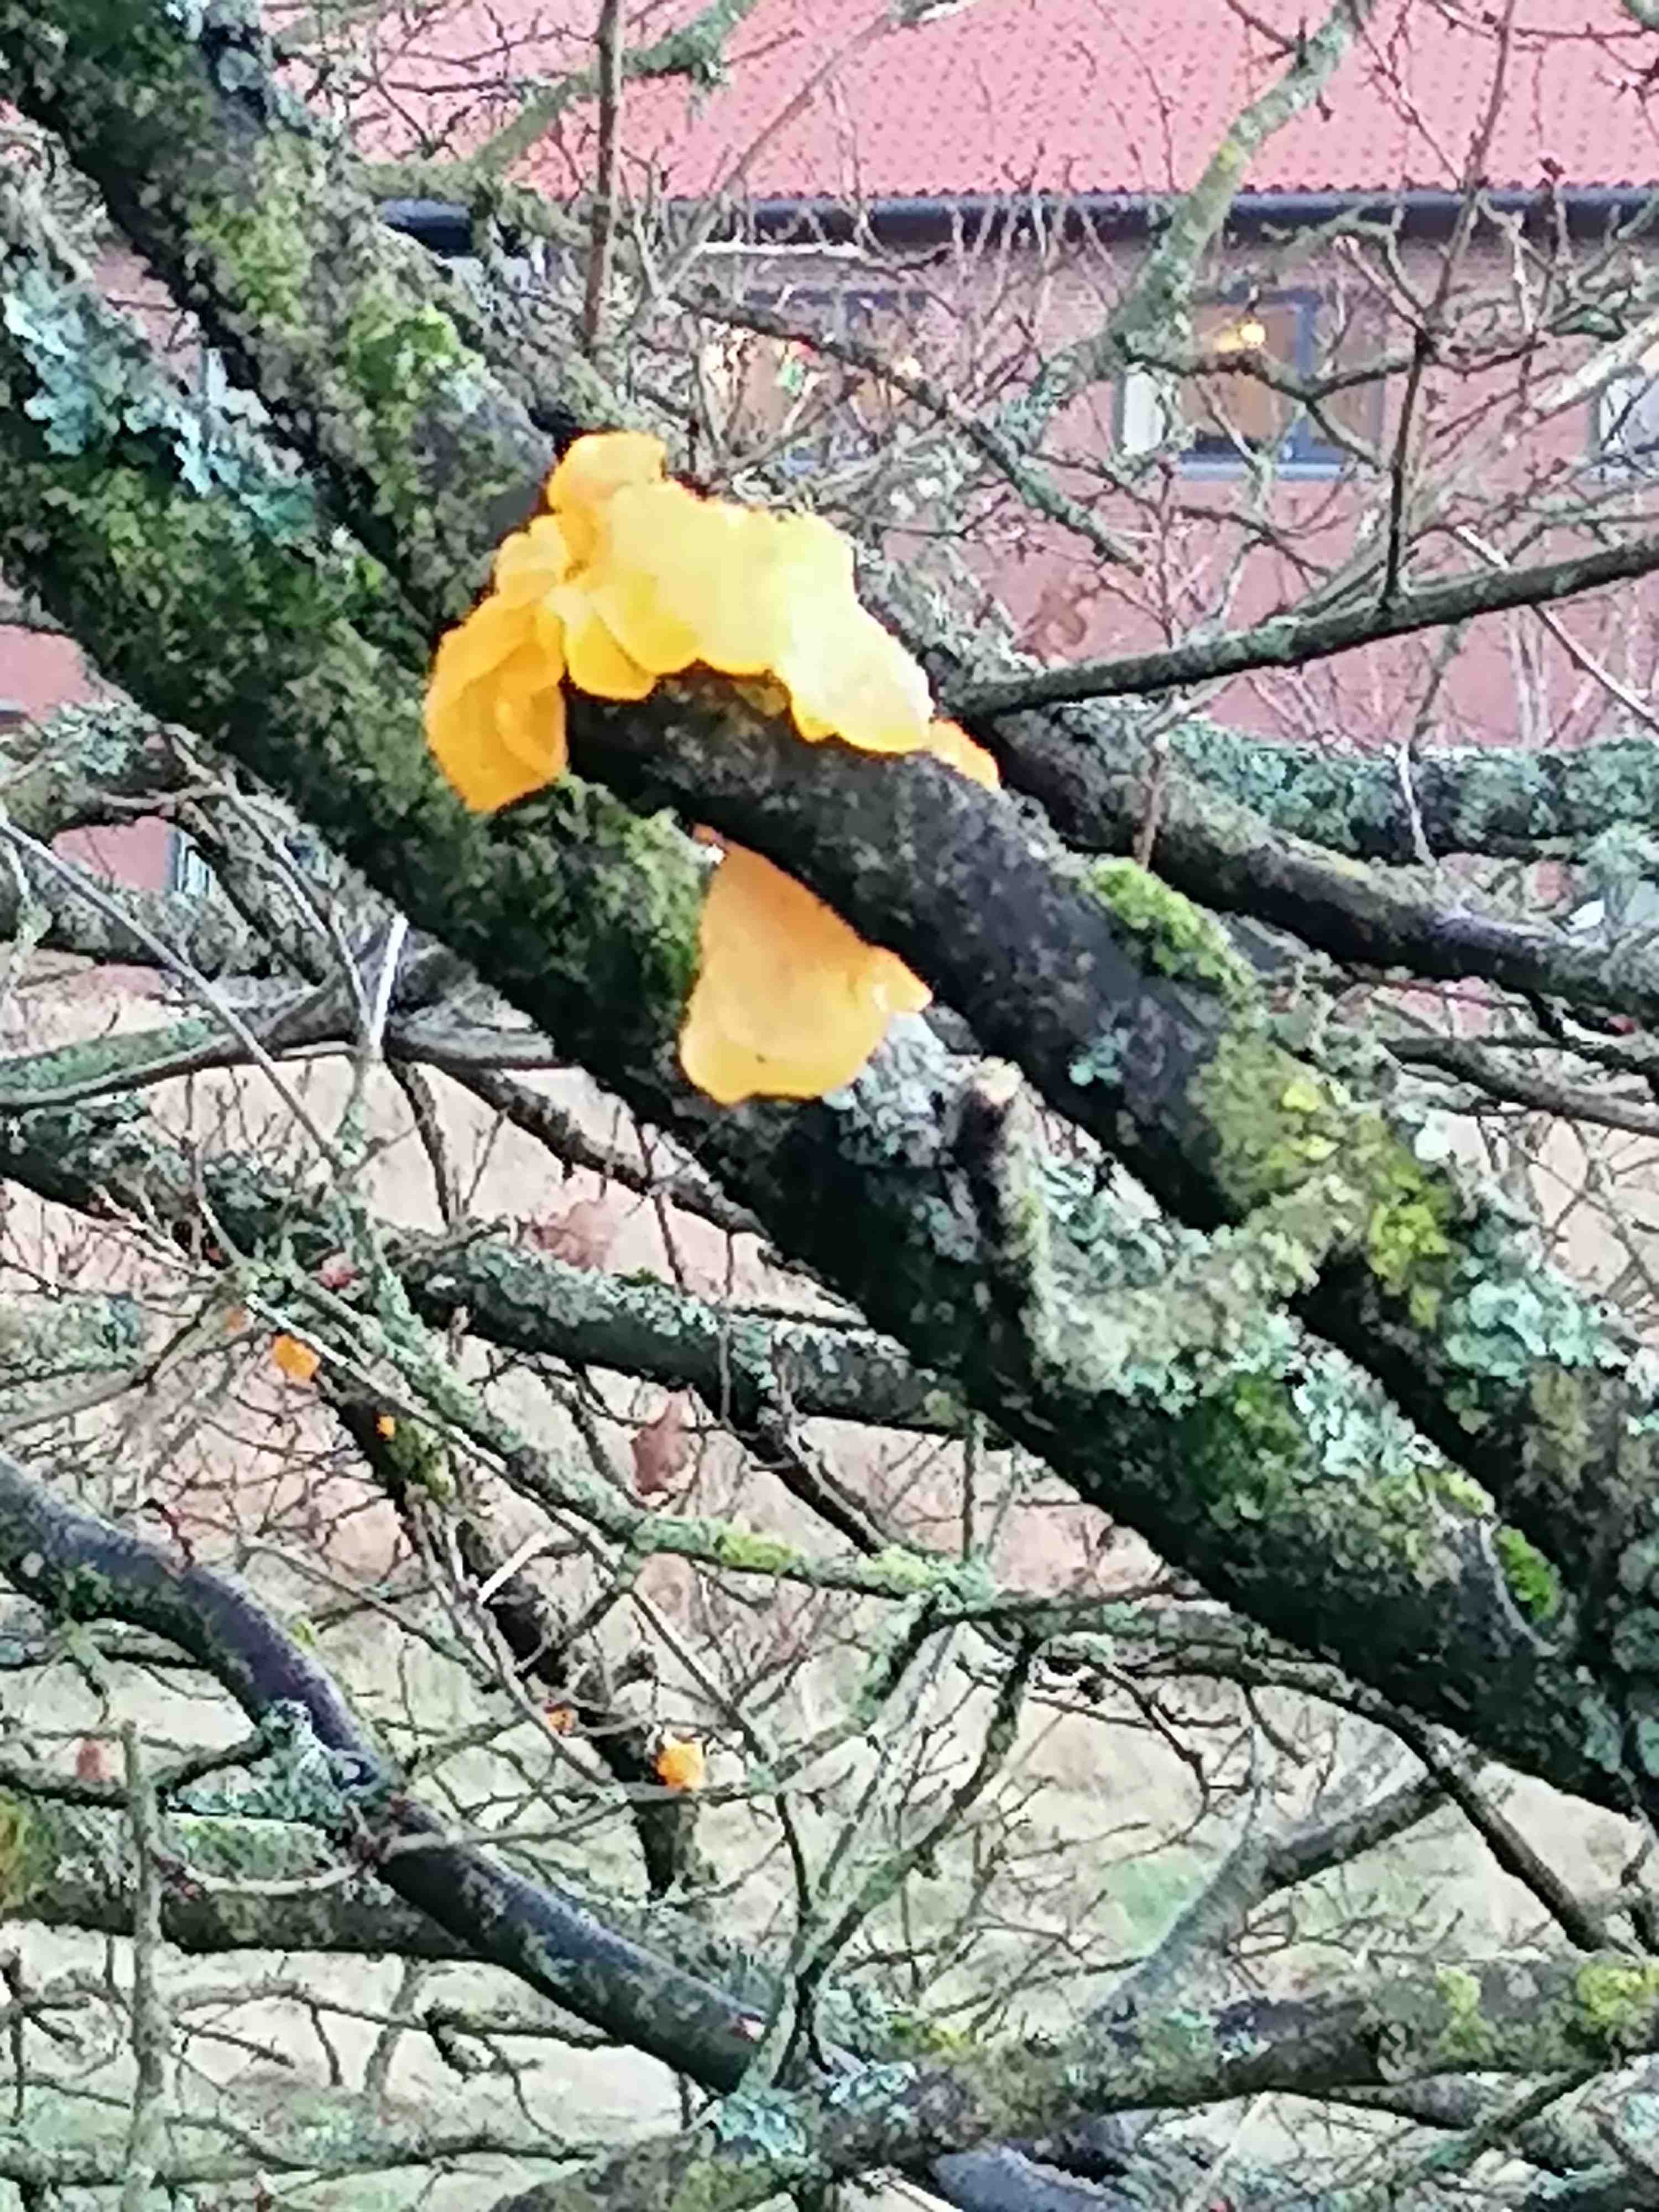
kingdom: Fungi
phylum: Basidiomycota
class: Tremellomycetes
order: Tremellales
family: Tremellaceae
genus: Tremella
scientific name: Tremella mesenterica
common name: gul bævresvamp
